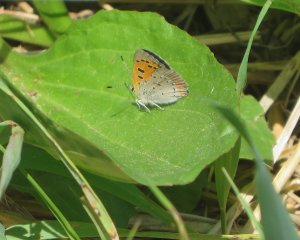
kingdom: Animalia
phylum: Arthropoda
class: Insecta
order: Lepidoptera
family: Lycaenidae
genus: Lycaena
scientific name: Lycaena phlaeas
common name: American Copper
